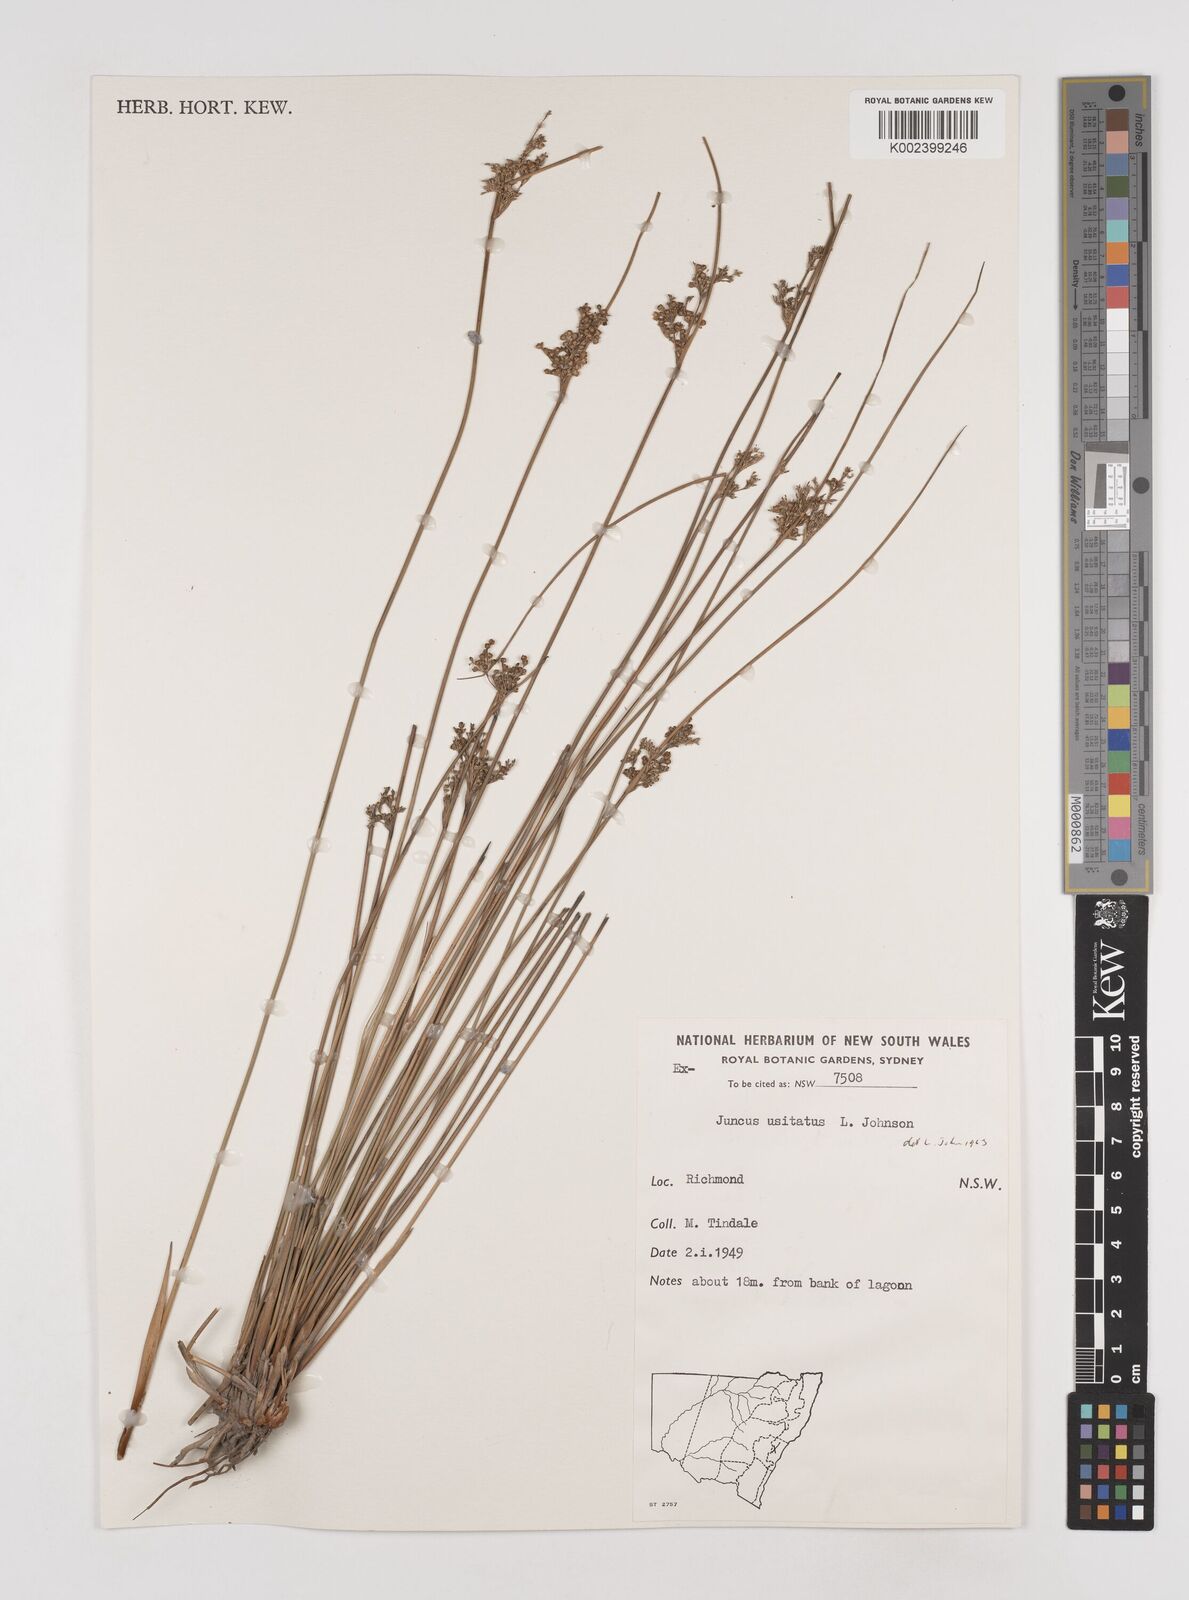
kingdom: Plantae
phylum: Tracheophyta
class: Liliopsida
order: Poales
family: Juncaceae
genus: Juncus
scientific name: Juncus usitatus
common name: Rush
